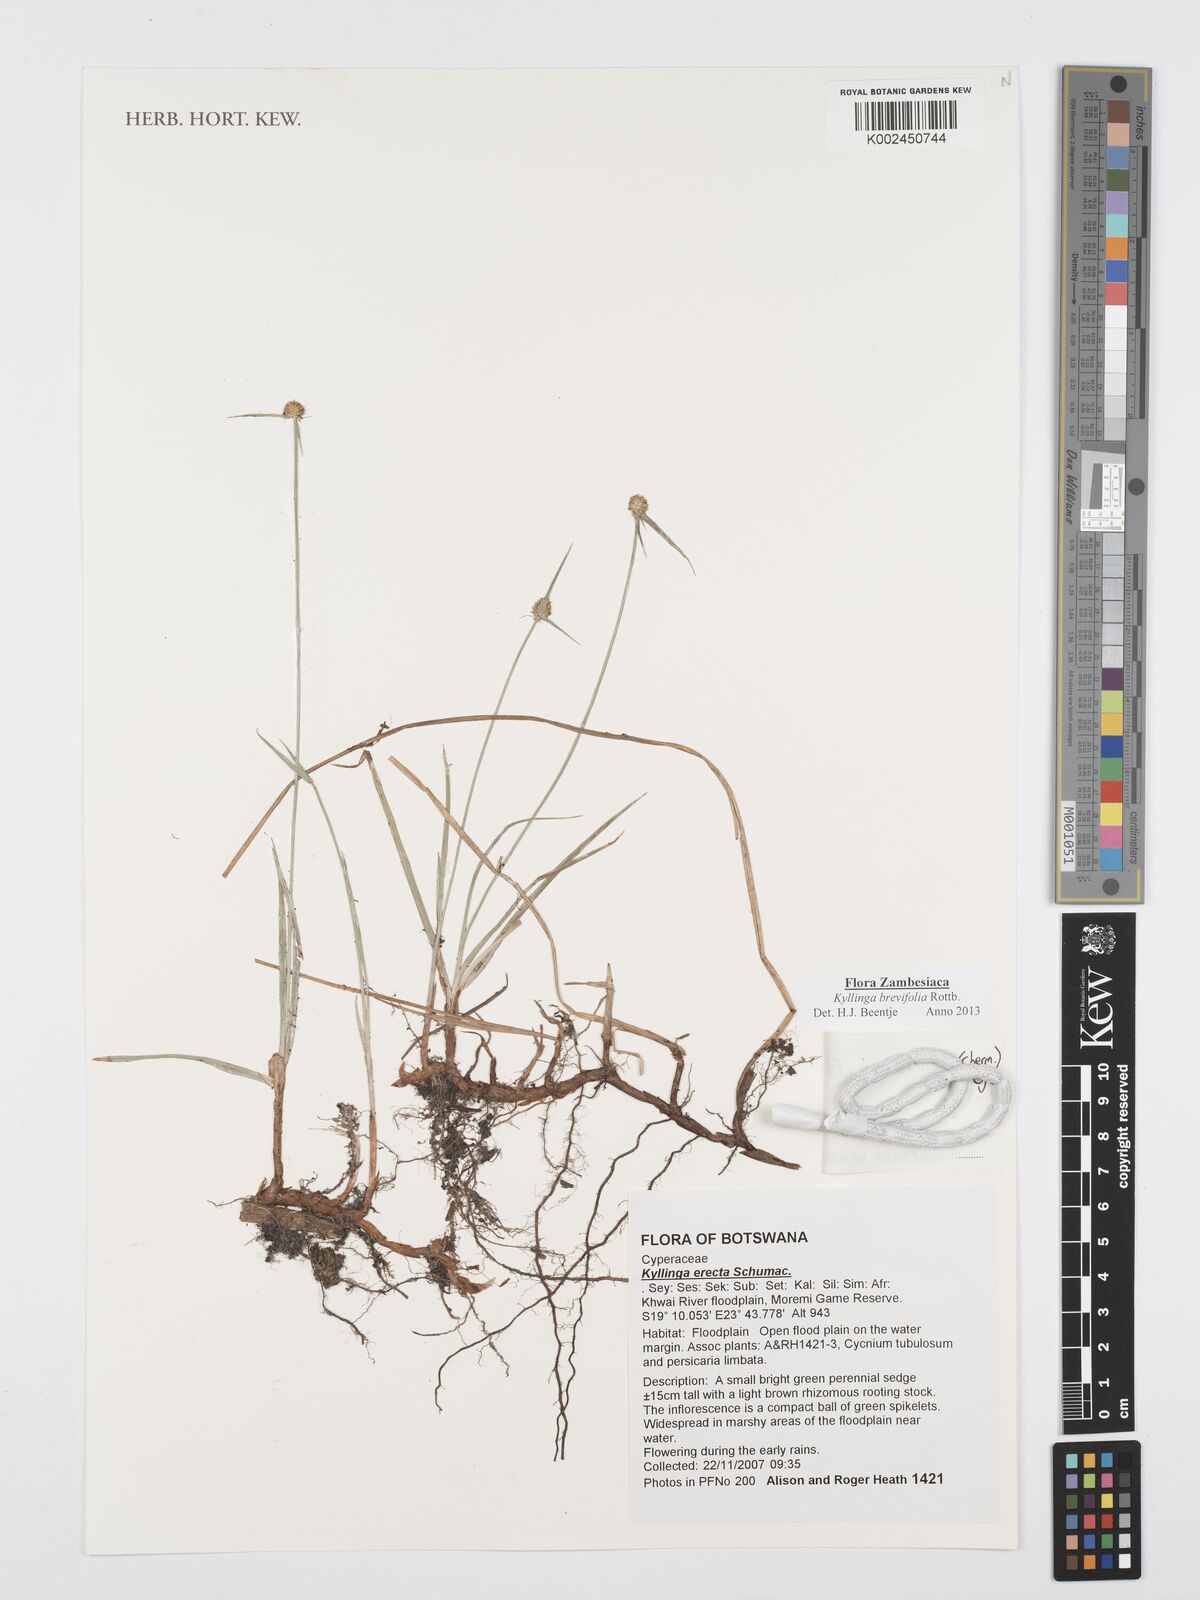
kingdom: Plantae
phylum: Tracheophyta
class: Liliopsida
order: Poales
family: Cyperaceae
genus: Cyperus
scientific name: Cyperus brevifolius
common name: Globe kyllinga
